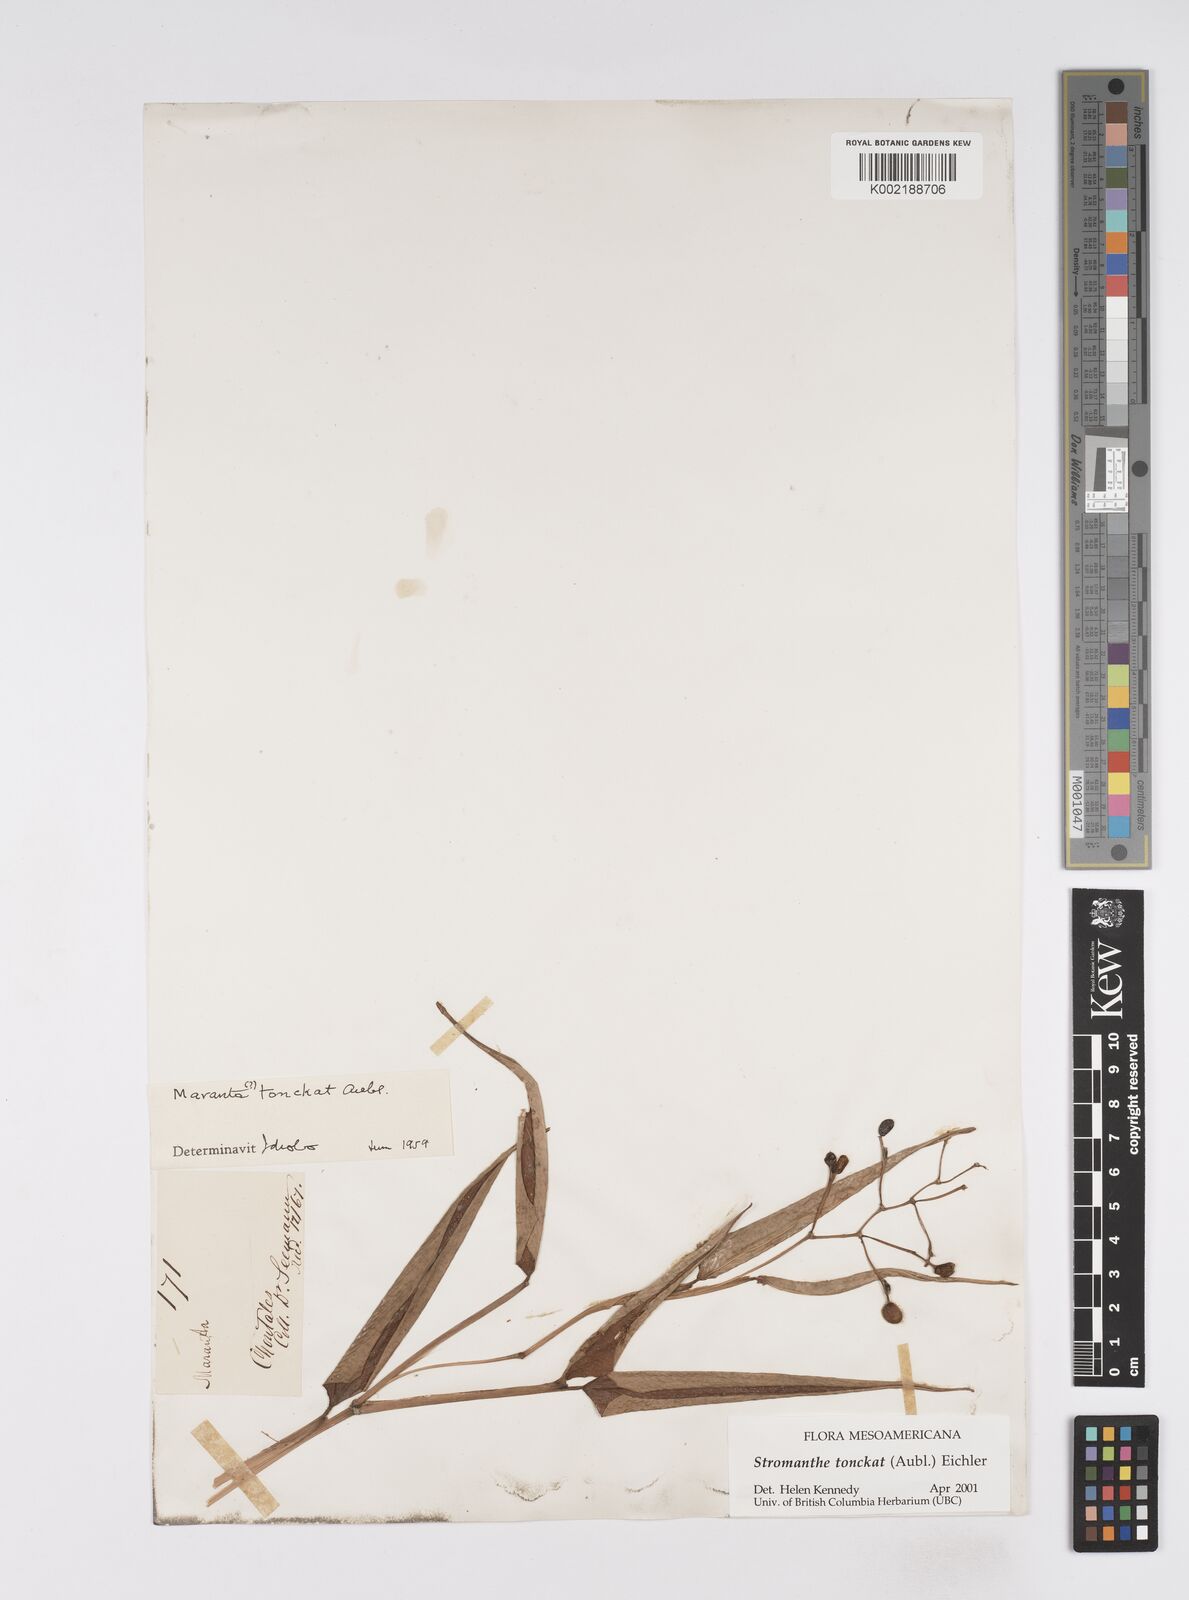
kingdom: Plantae
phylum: Tracheophyta
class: Liliopsida
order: Zingiberales
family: Marantaceae
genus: Stromanthe
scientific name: Stromanthe tonckat
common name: Stromanthe
